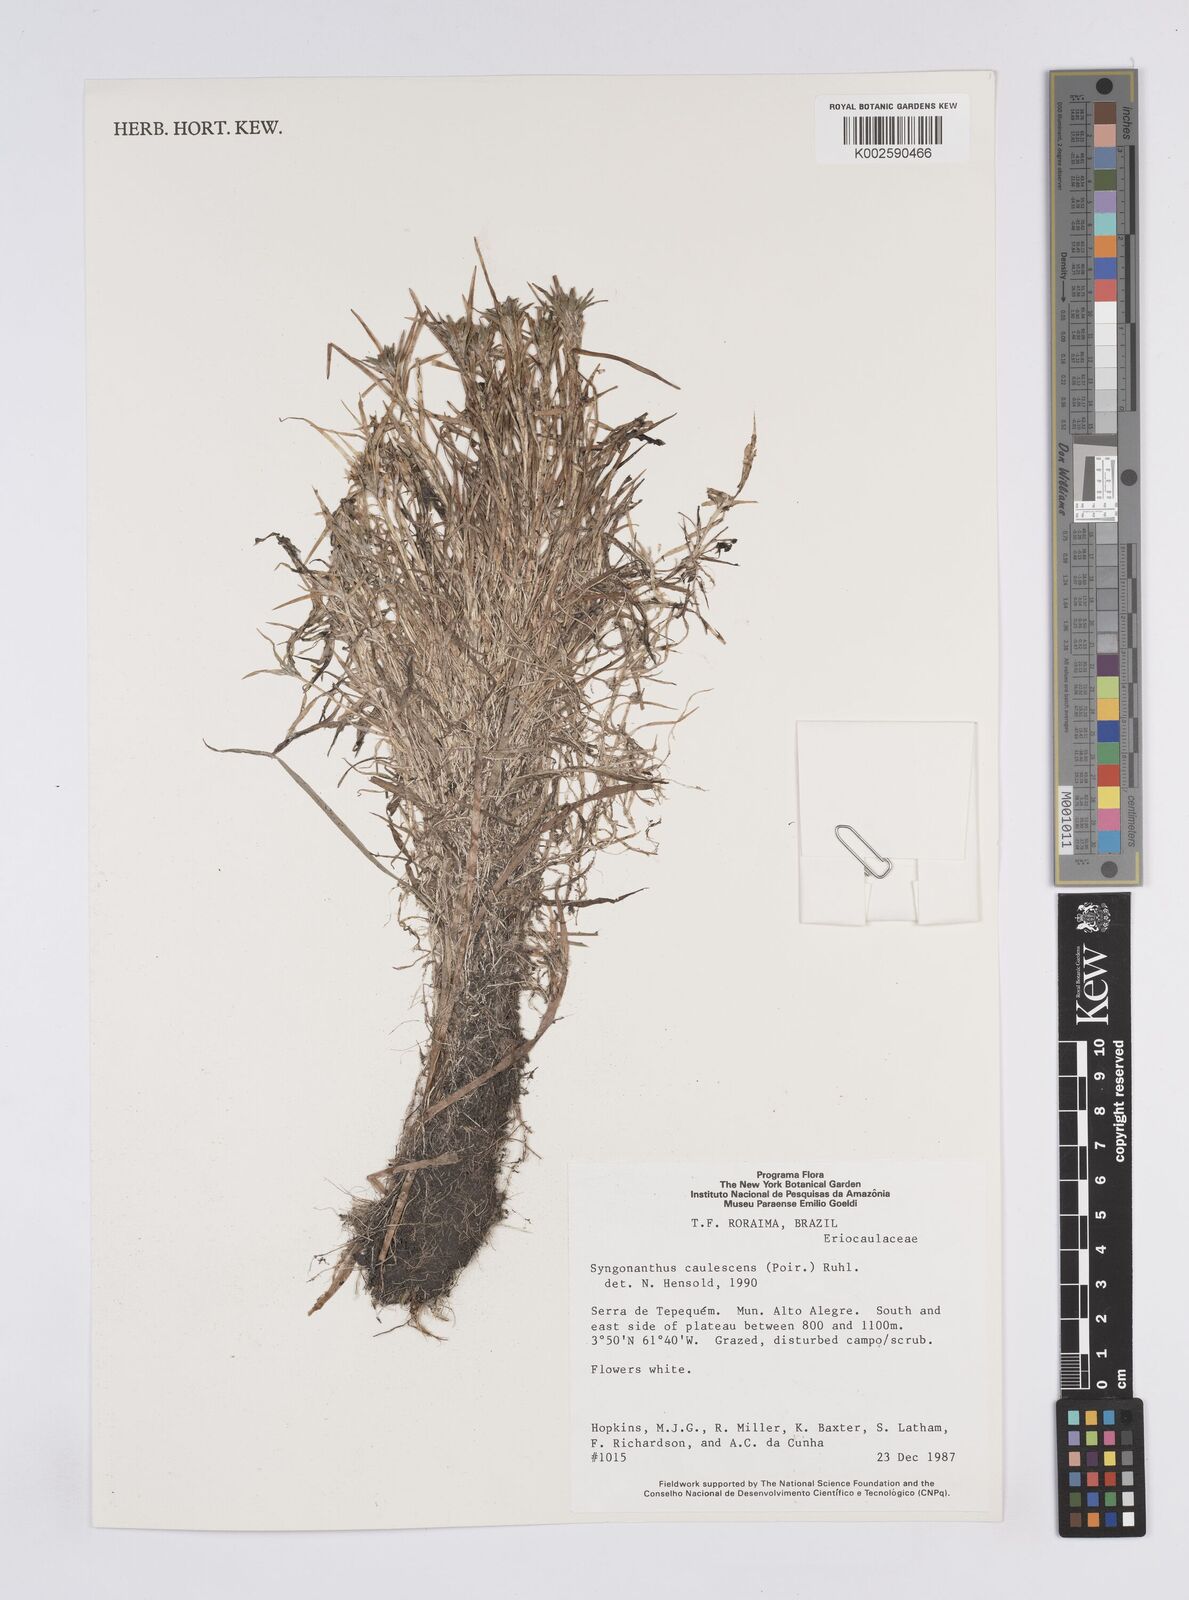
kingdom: Plantae
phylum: Tracheophyta
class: Liliopsida
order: Poales
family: Eriocaulaceae
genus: Syngonanthus
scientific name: Syngonanthus caulescens
